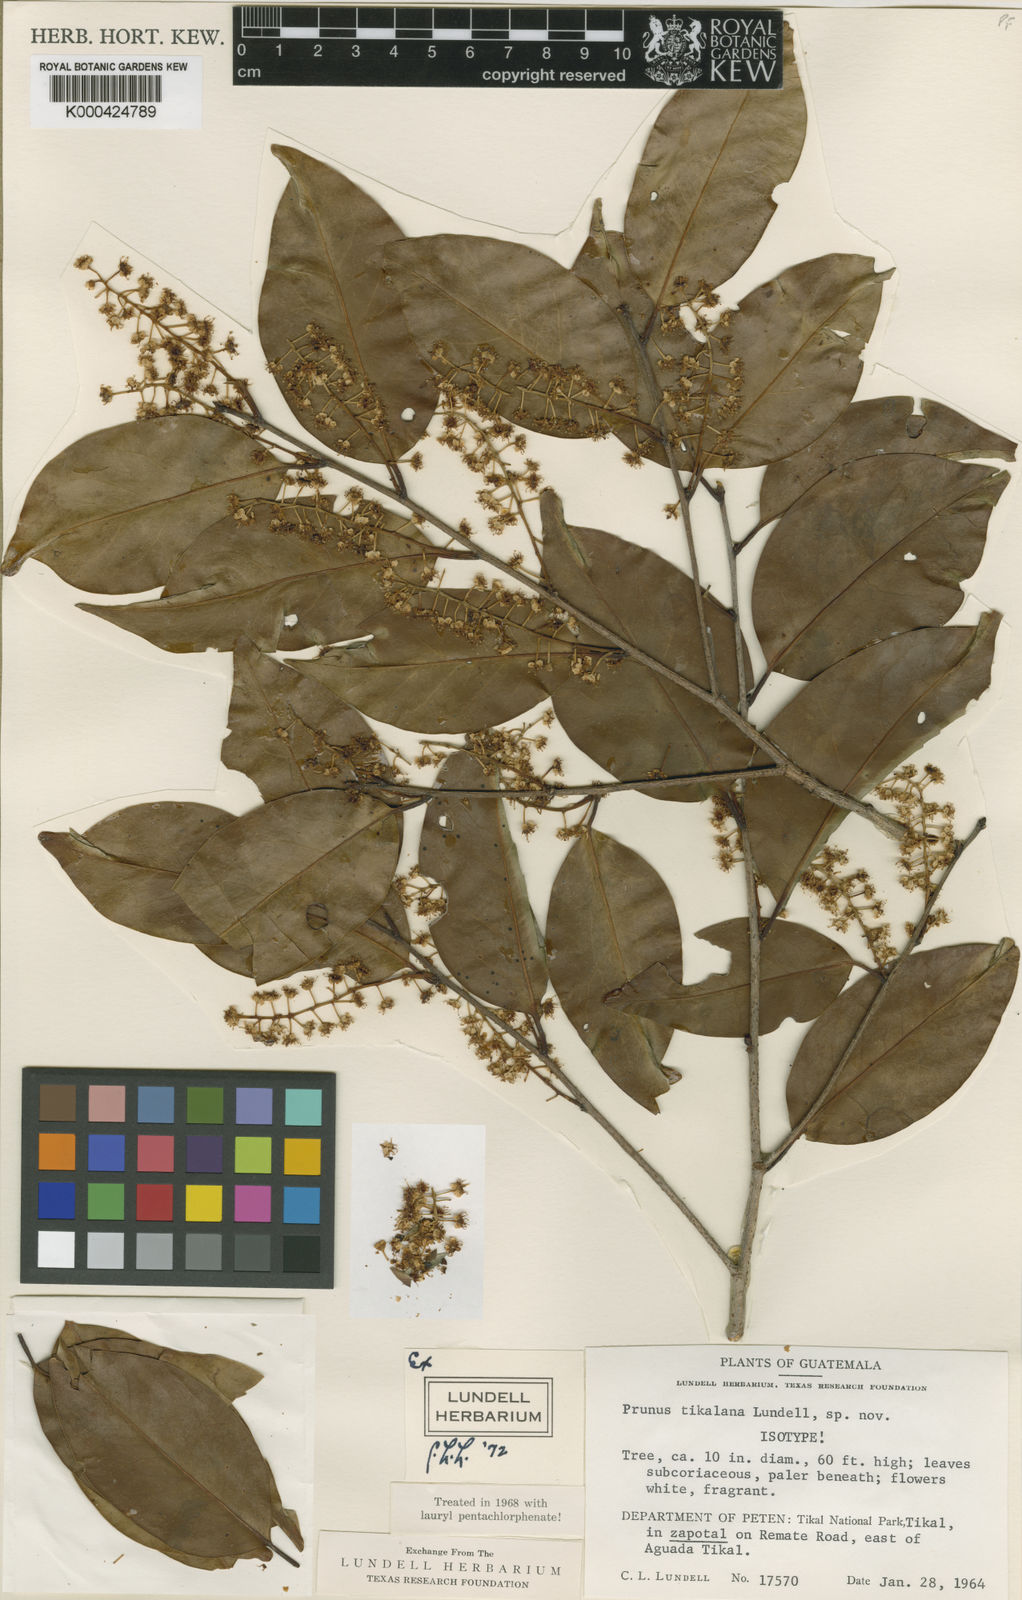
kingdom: Plantae
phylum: Tracheophyta
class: Magnoliopsida
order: Rosales
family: Rosaceae
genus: Prunus
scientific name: Prunus myrtifolia
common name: West indies cherry
